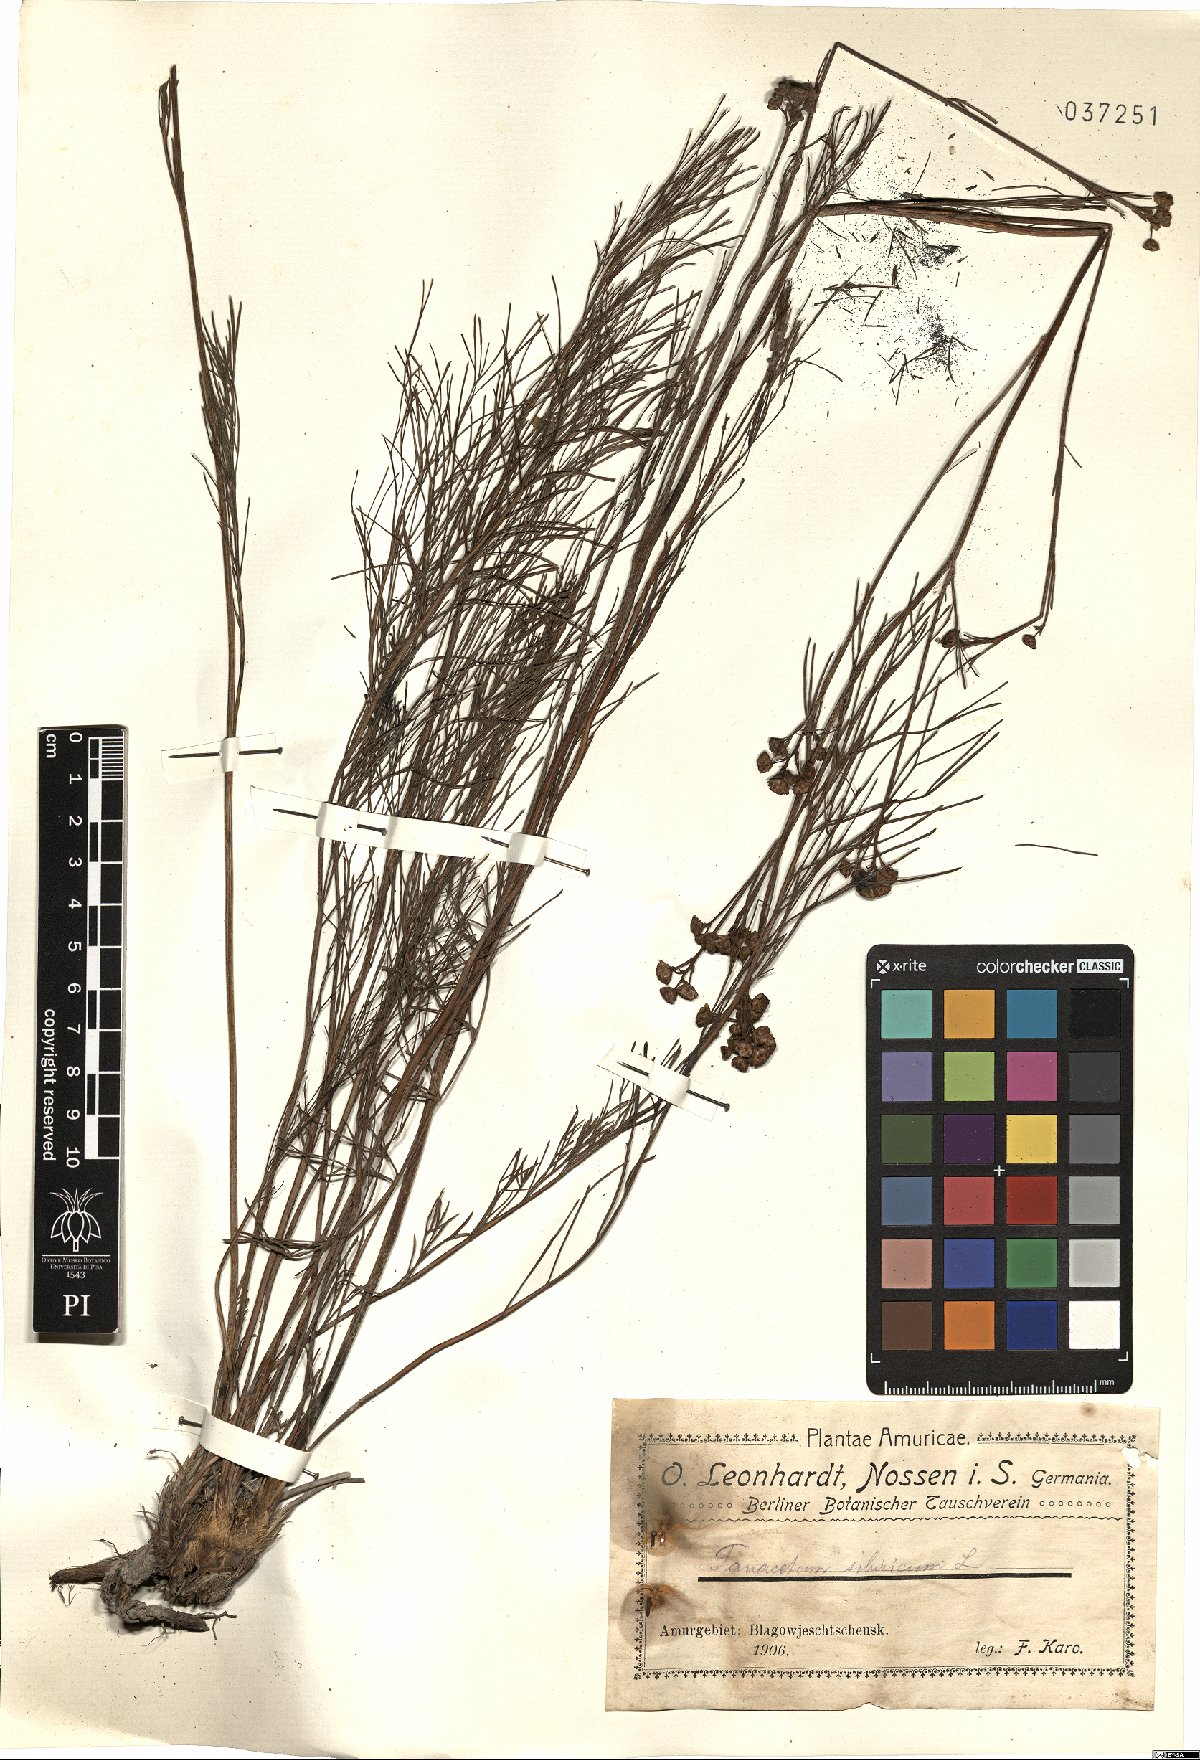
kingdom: Plantae
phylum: Tracheophyta
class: Magnoliopsida
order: Asterales
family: Asteraceae
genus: Filifolium
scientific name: Filifolium sibiricum
